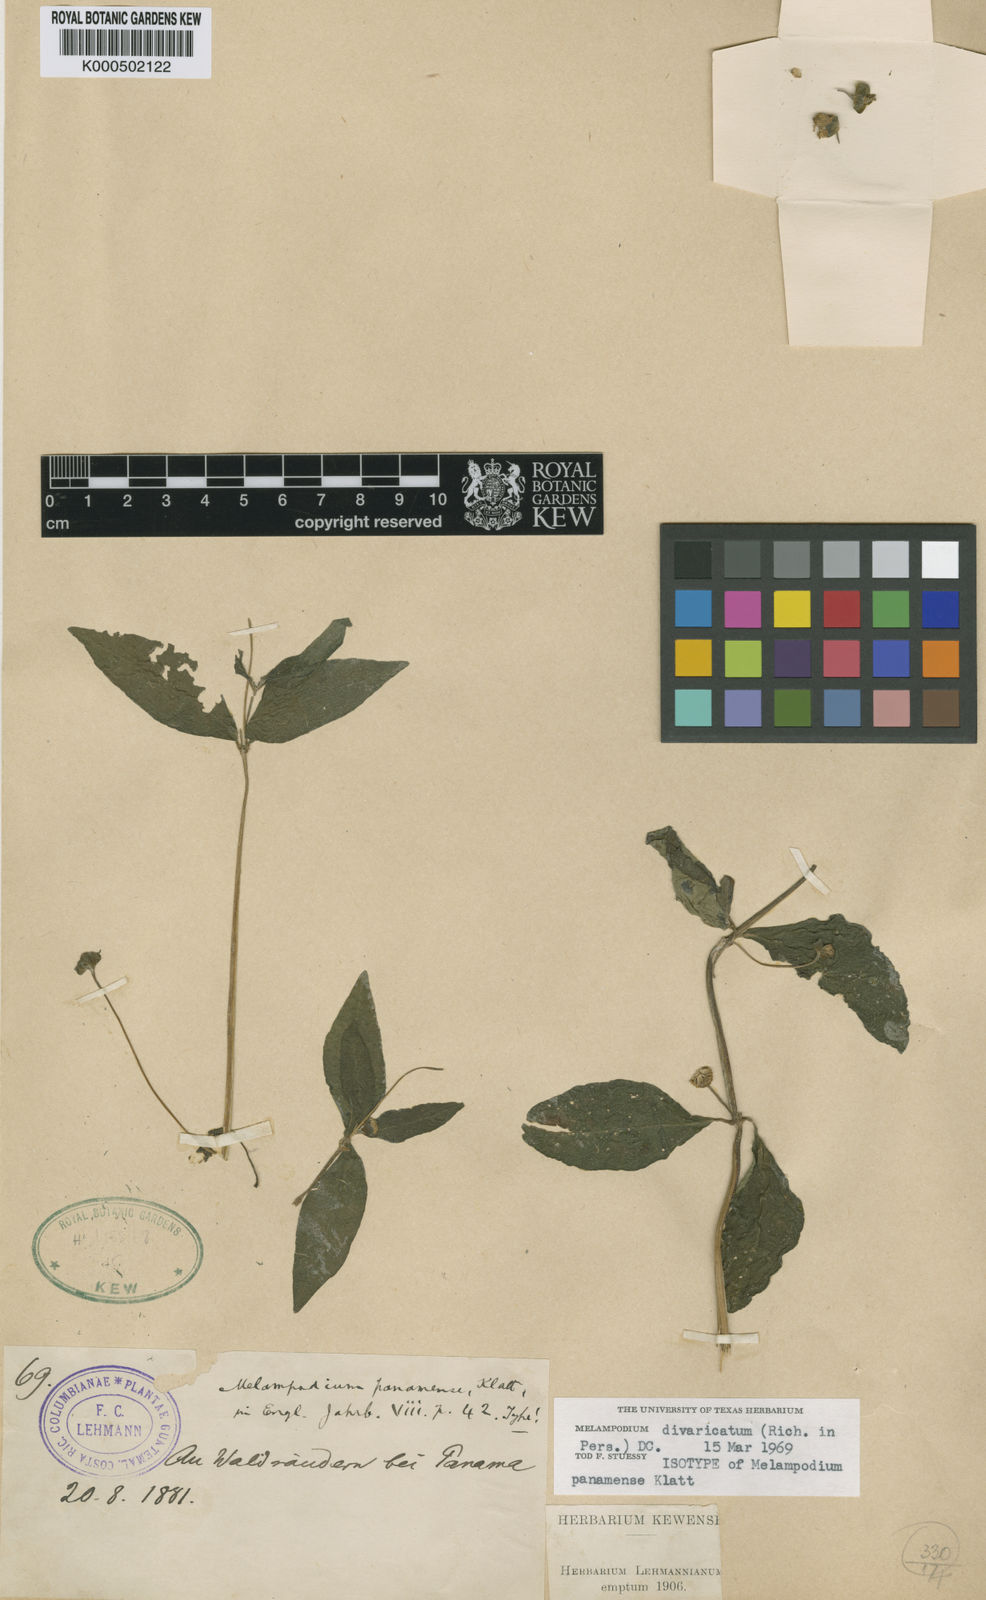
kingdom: Plantae
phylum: Tracheophyta
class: Magnoliopsida
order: Asterales
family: Asteraceae
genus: Melampodium
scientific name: Melampodium divaricatum
